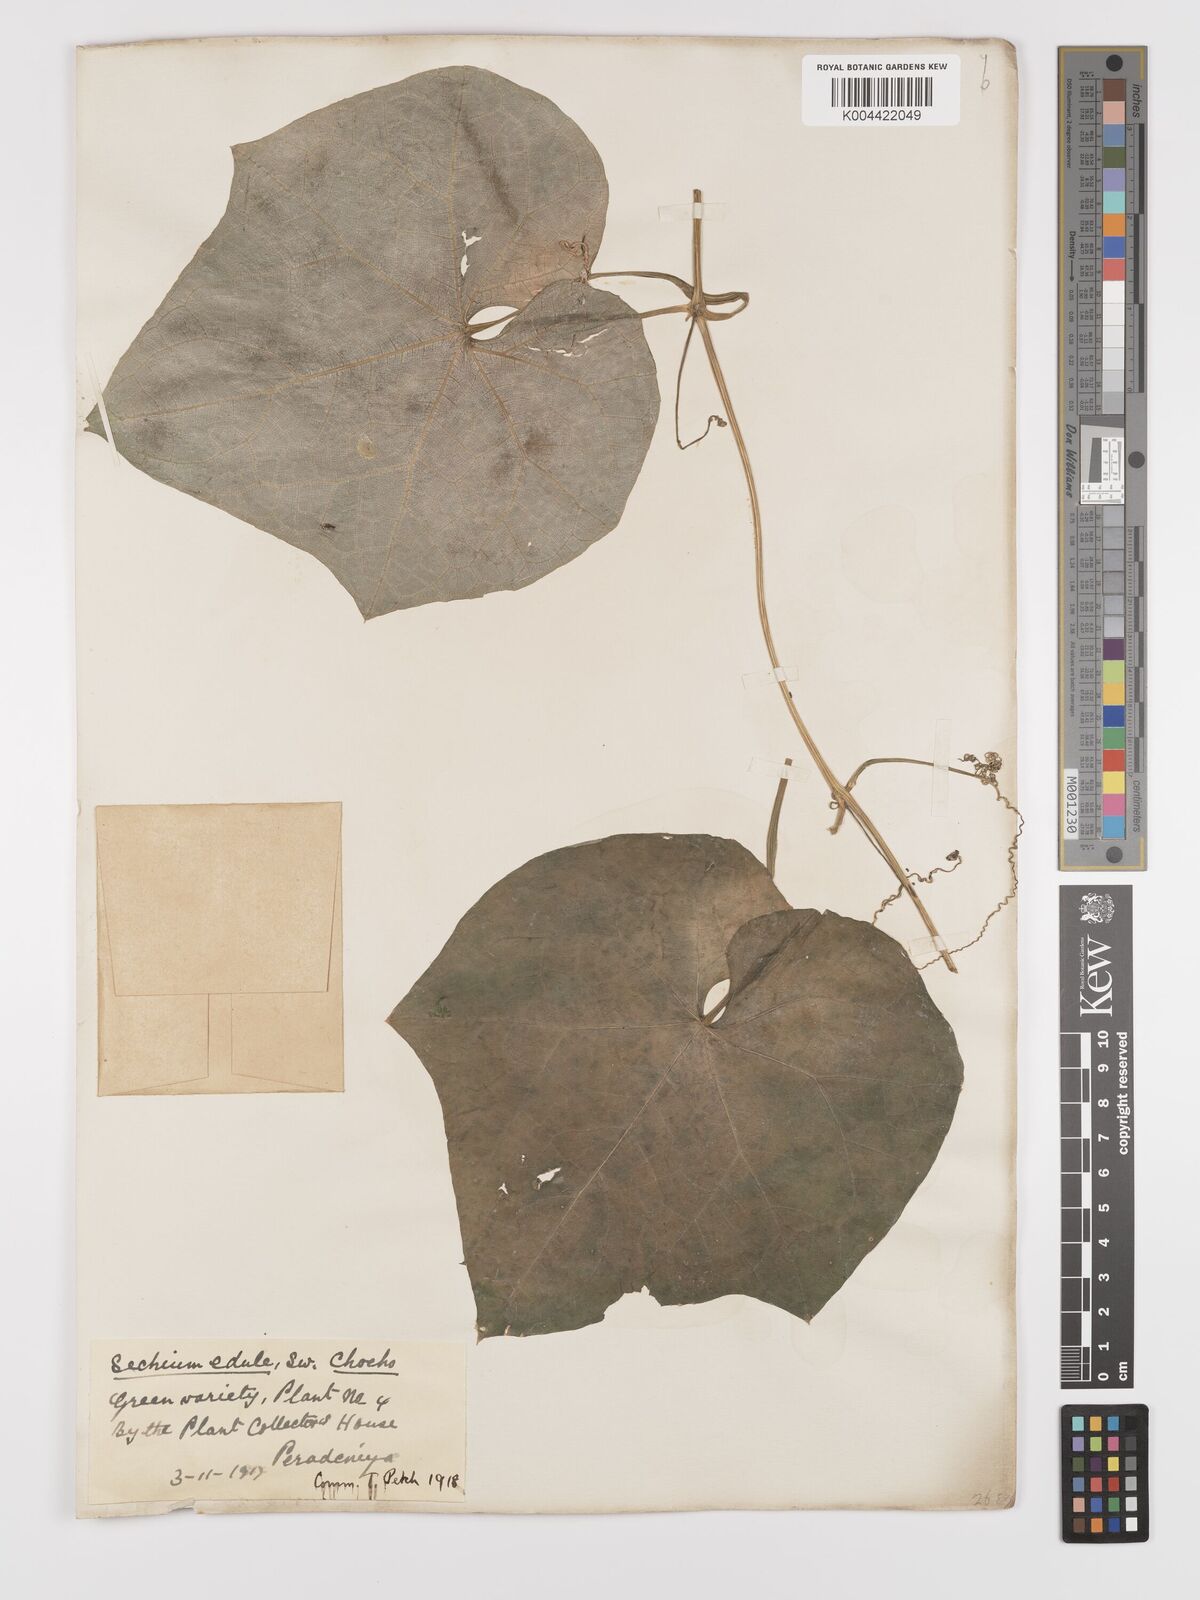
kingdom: Plantae
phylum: Tracheophyta
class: Magnoliopsida
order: Cucurbitales
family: Cucurbitaceae
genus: Sechium
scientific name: Sechium edule
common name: Chayote
